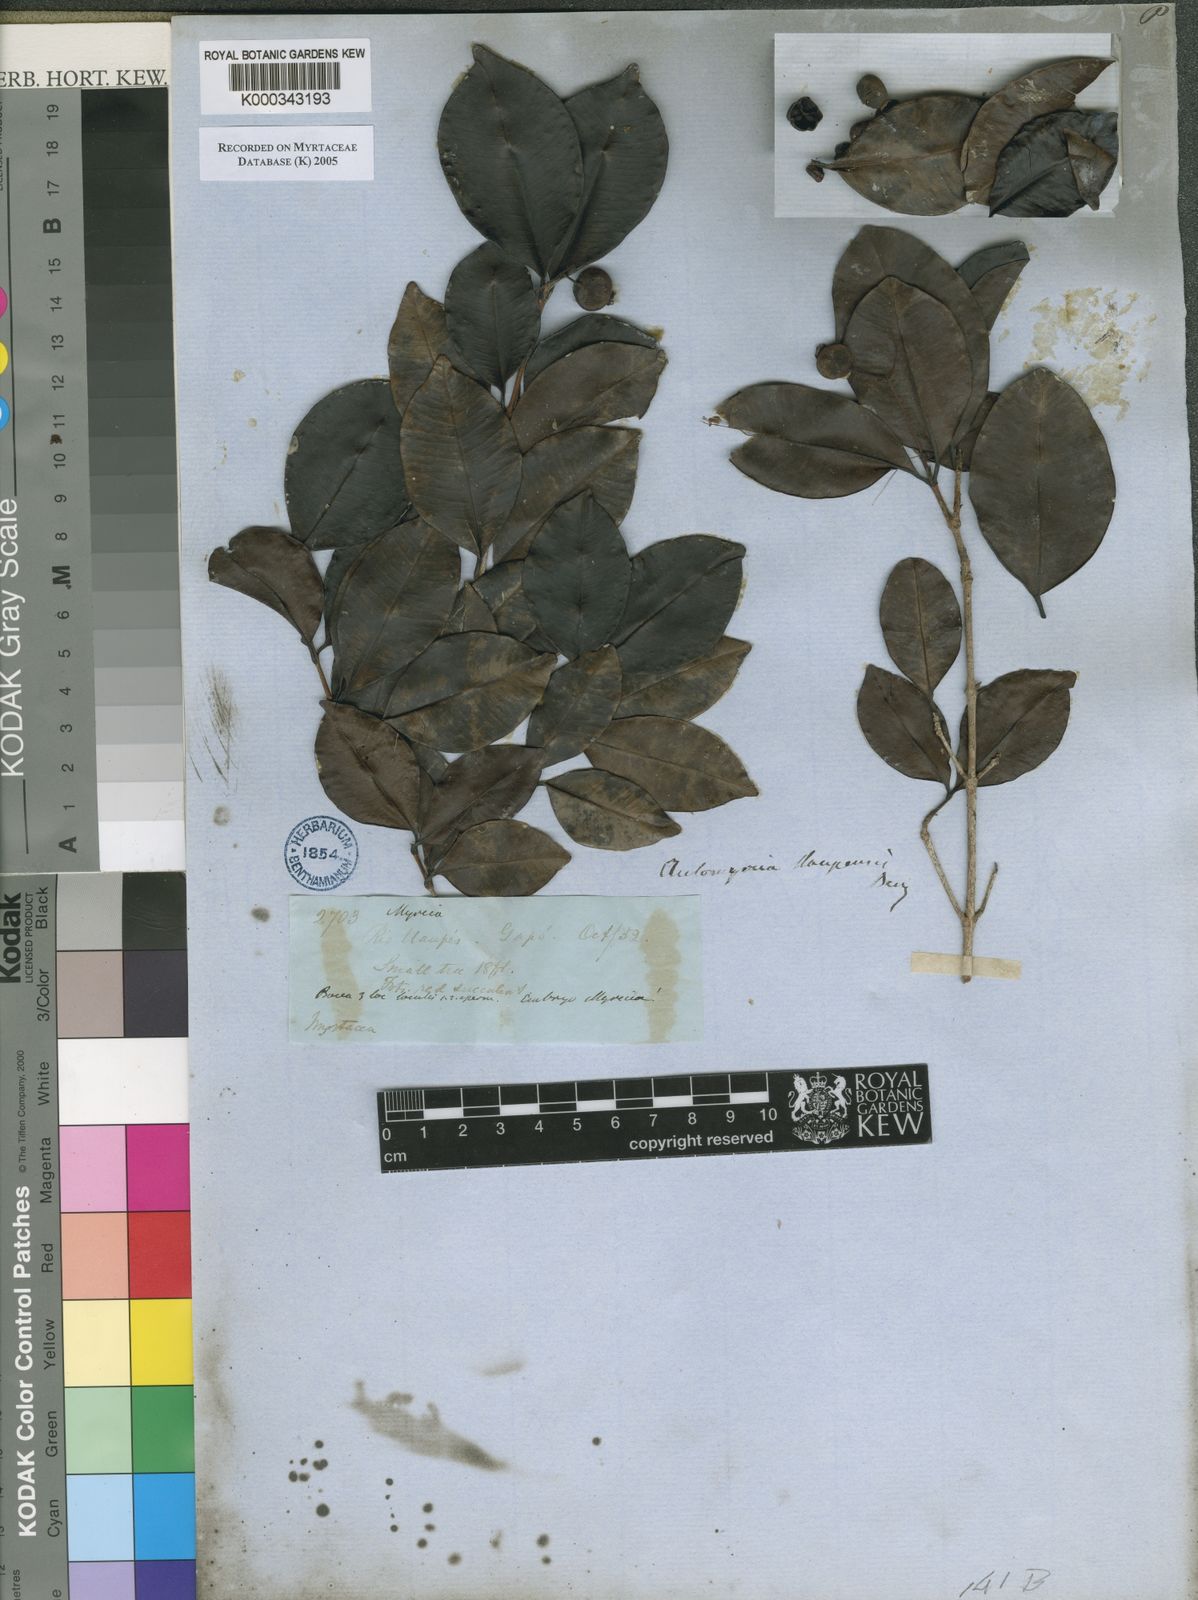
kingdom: Plantae
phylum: Tracheophyta
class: Magnoliopsida
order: Myrtales
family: Myrtaceae
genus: Myrcia
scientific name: Myrcia guianensis
